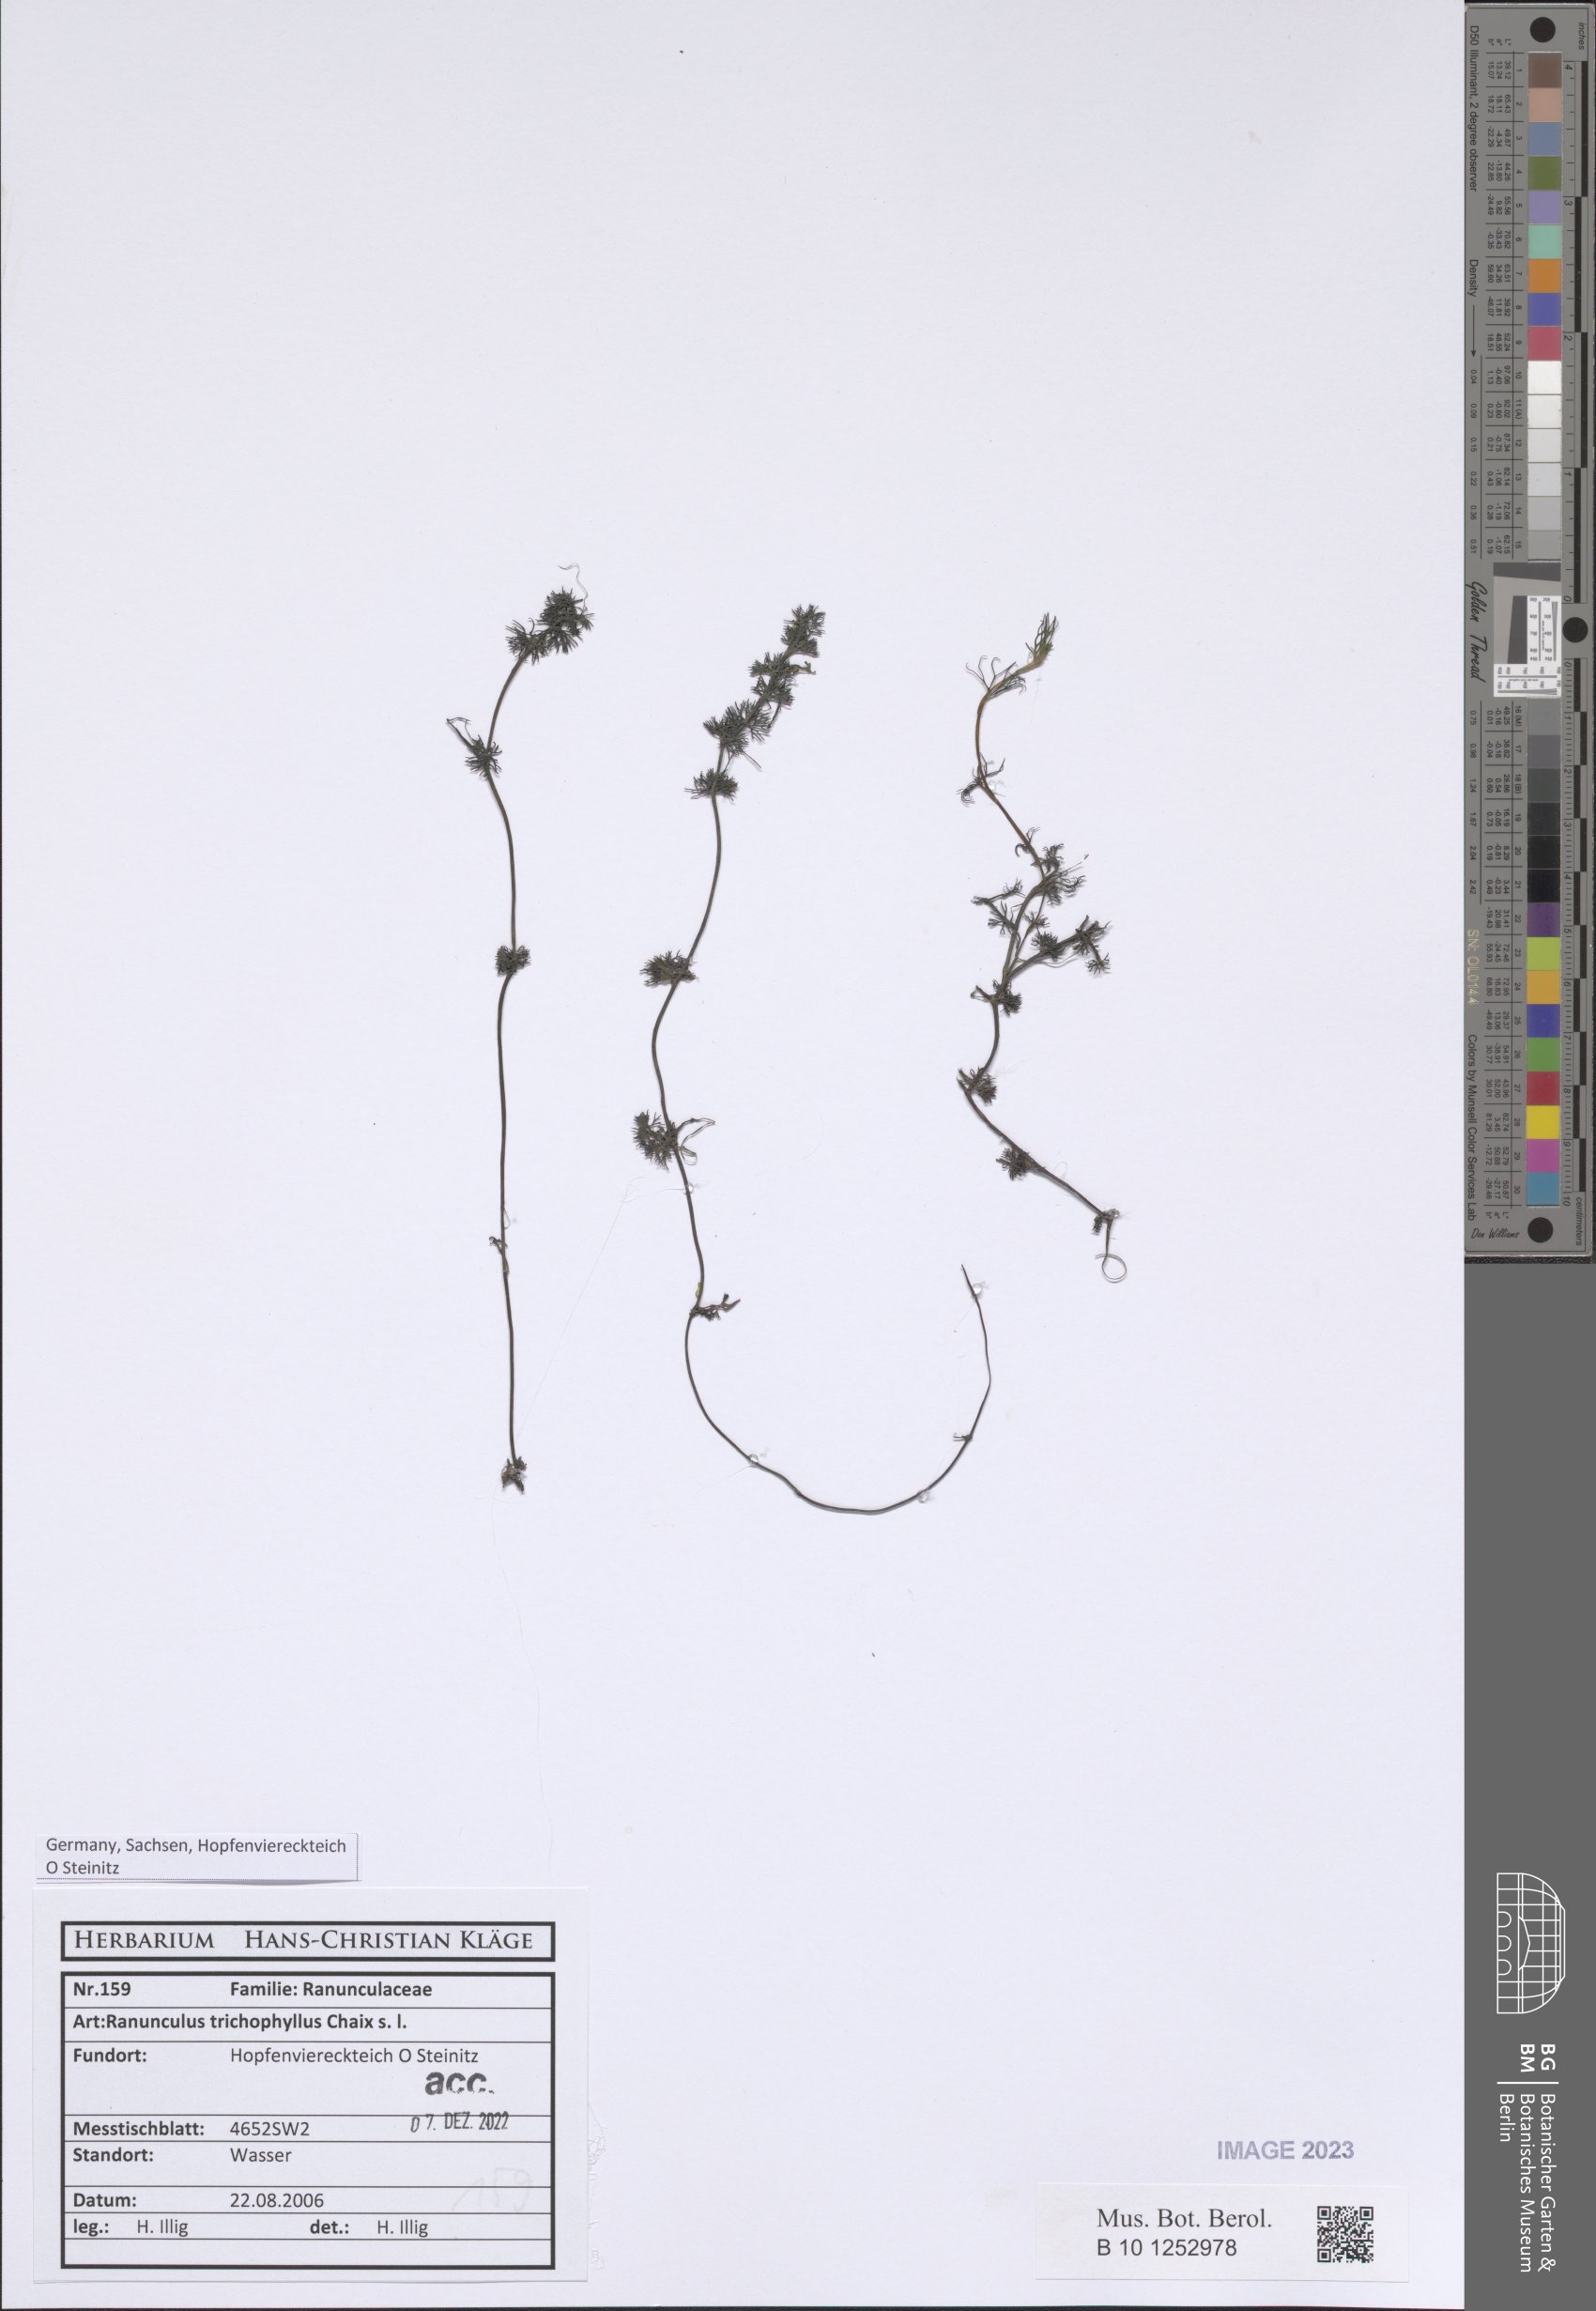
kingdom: Plantae
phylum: Tracheophyta
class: Magnoliopsida
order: Ranunculales
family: Ranunculaceae
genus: Ranunculus
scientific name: Ranunculus circinatus
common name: Fan-leaved water-crowfoot
